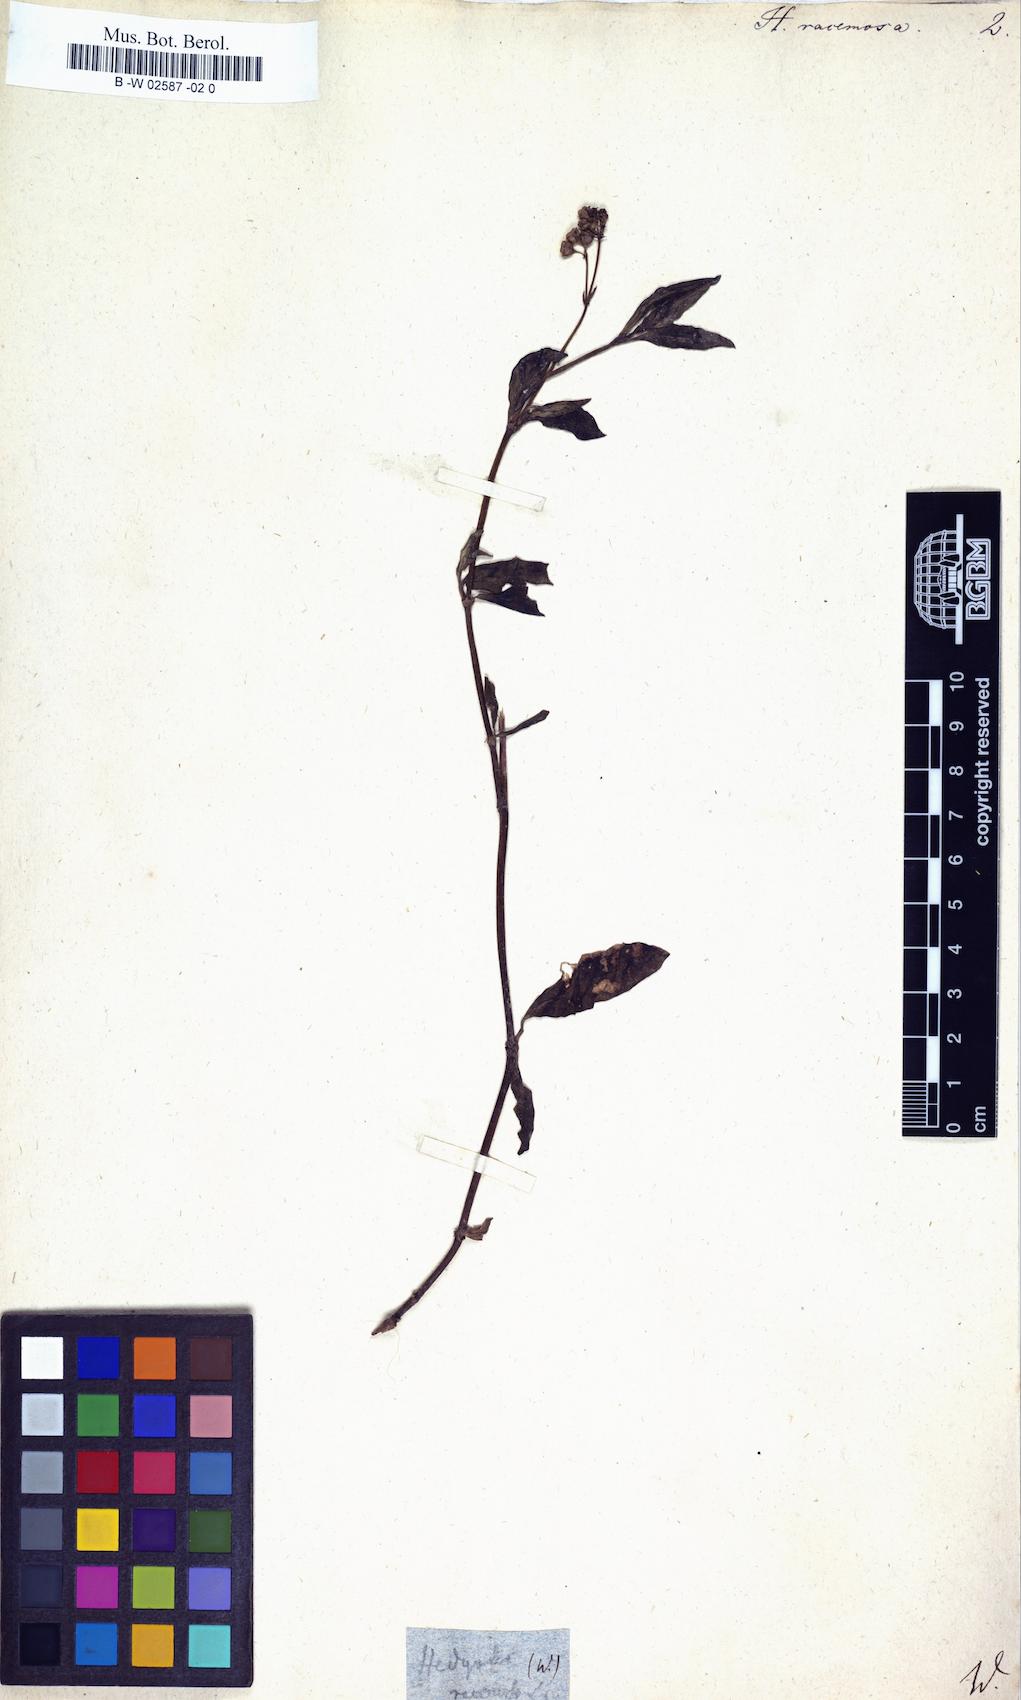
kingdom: Plantae
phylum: Tracheophyta
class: Magnoliopsida
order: Gentianales
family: Rubiaceae
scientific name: Rubiaceae
